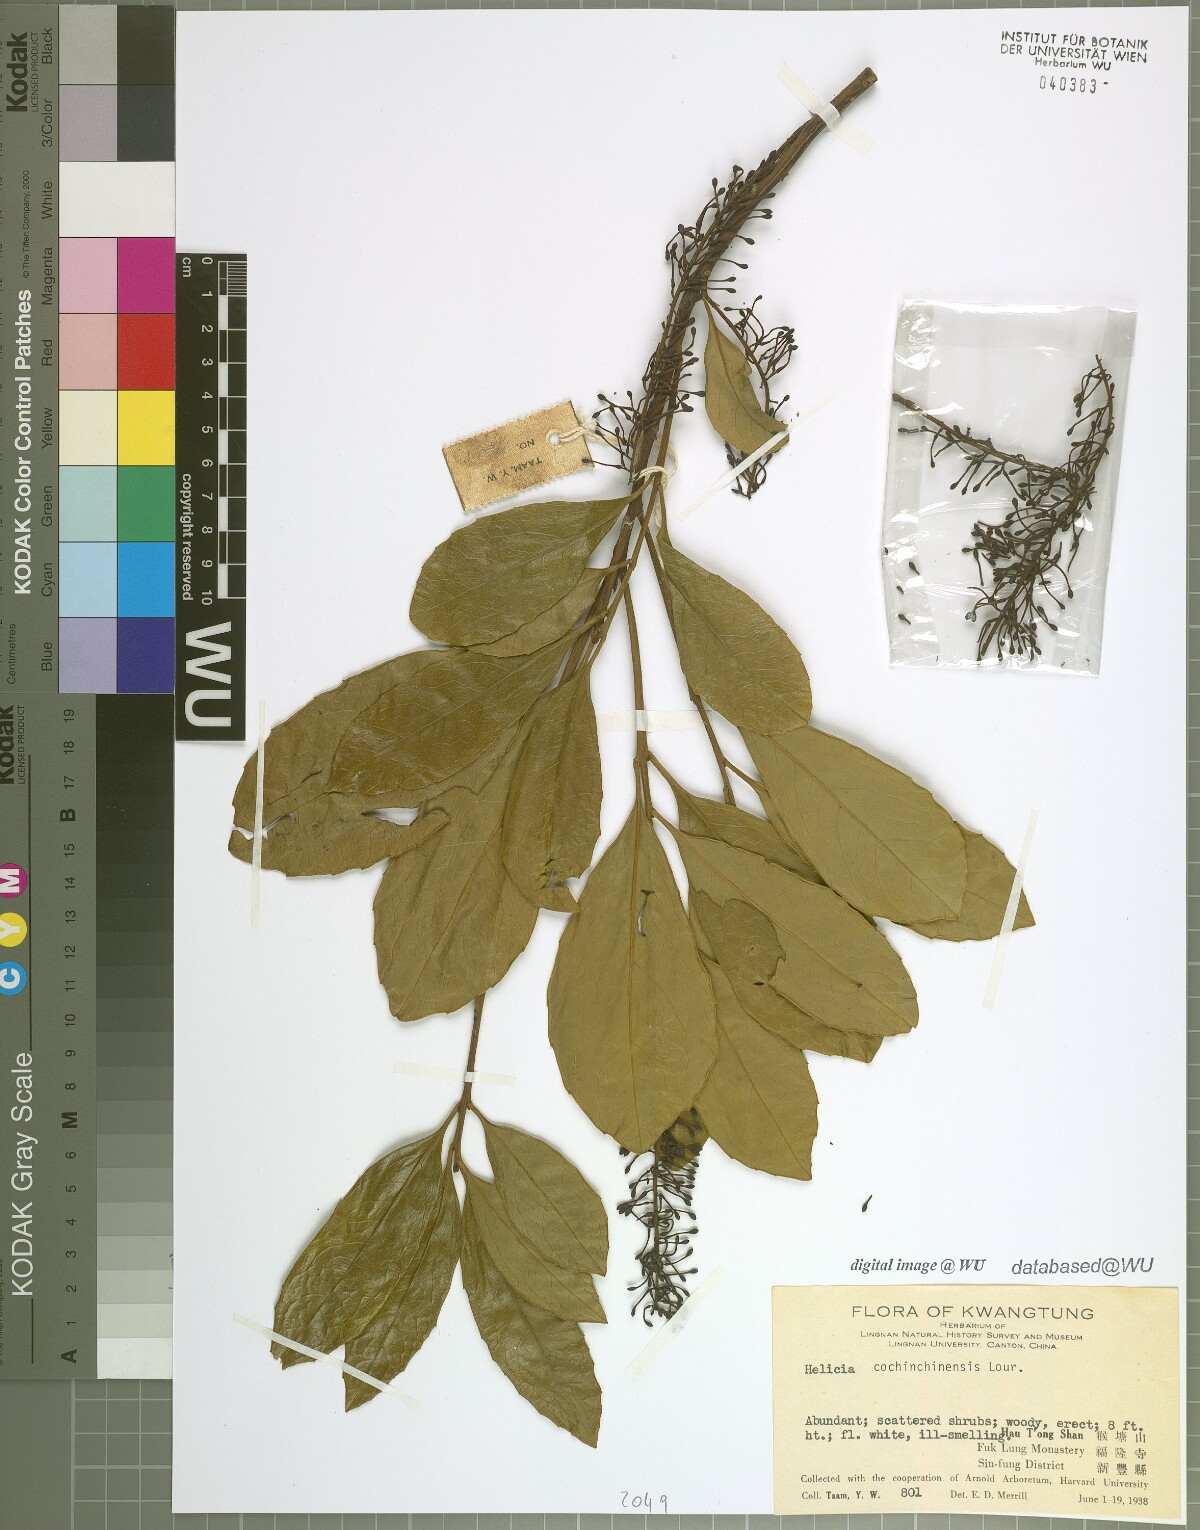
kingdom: Plantae
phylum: Tracheophyta
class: Magnoliopsida
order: Proteales
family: Proteaceae
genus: Helicia
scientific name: Helicia cochinchinensis
